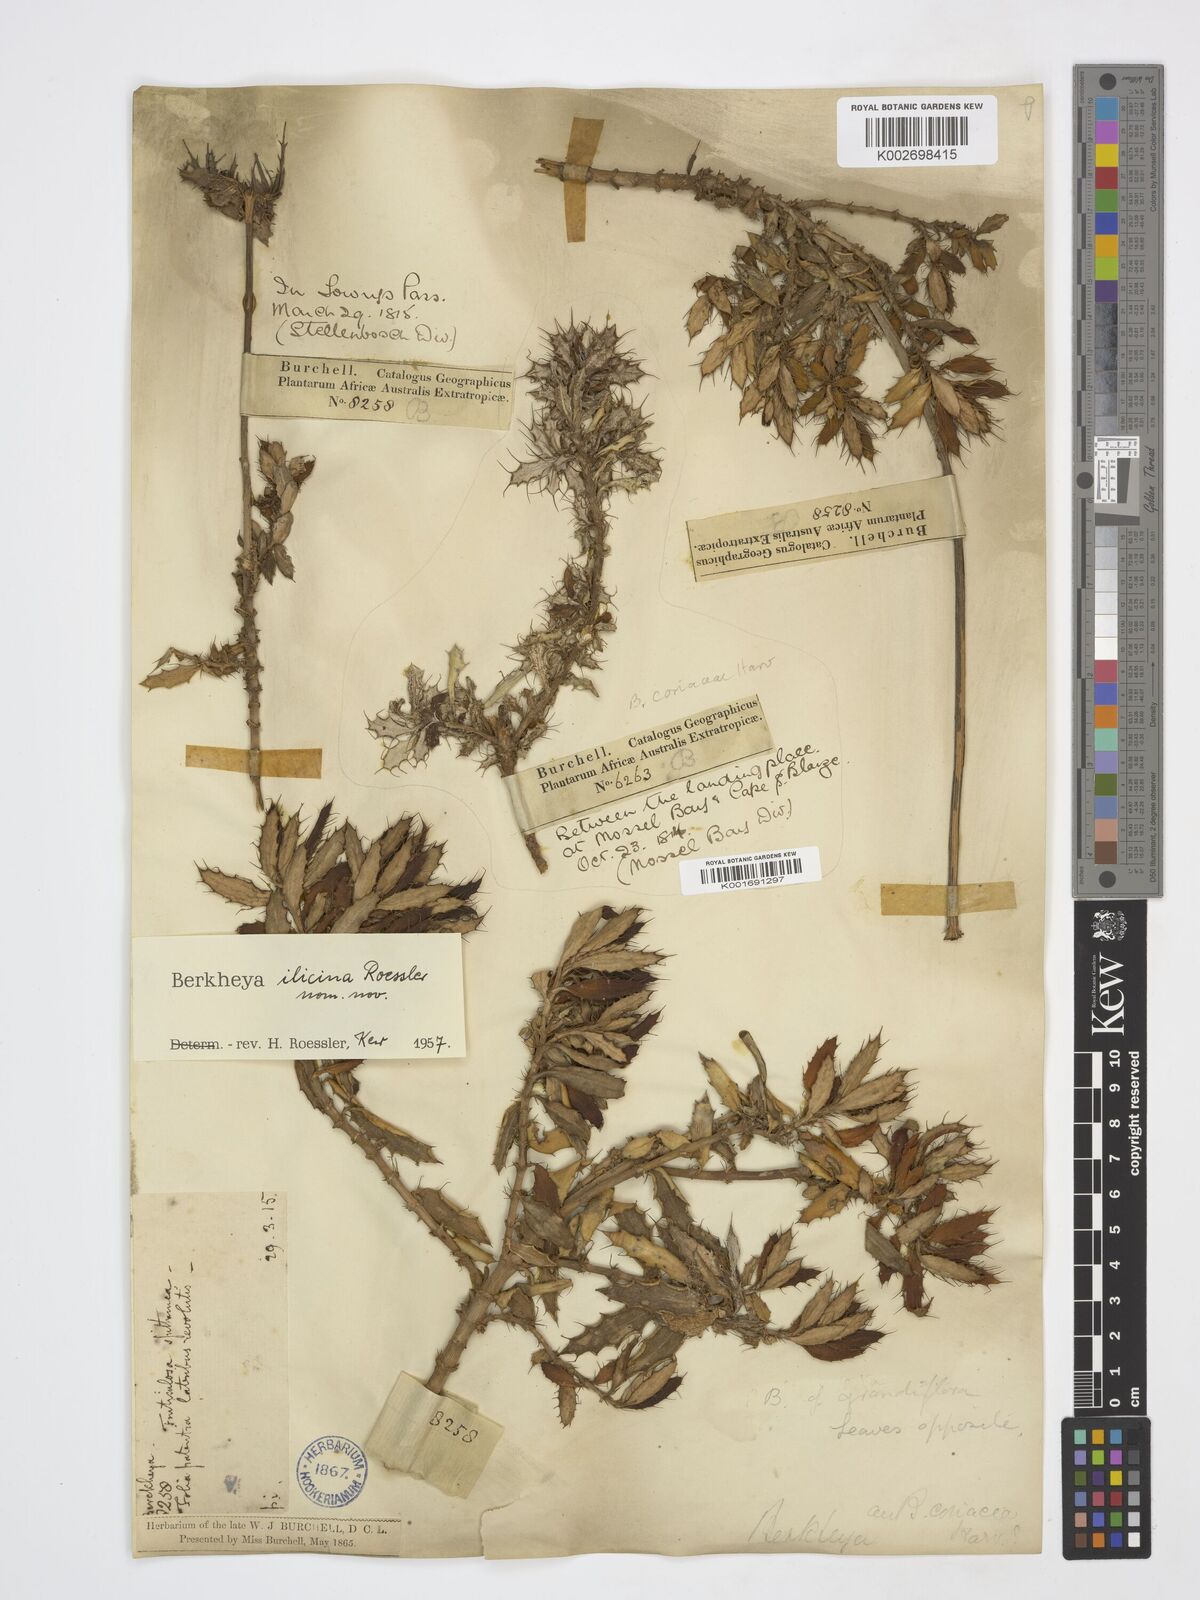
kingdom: Plantae
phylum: Tracheophyta
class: Magnoliopsida
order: Asterales
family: Asteraceae
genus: Berkheya
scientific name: Berkheya
